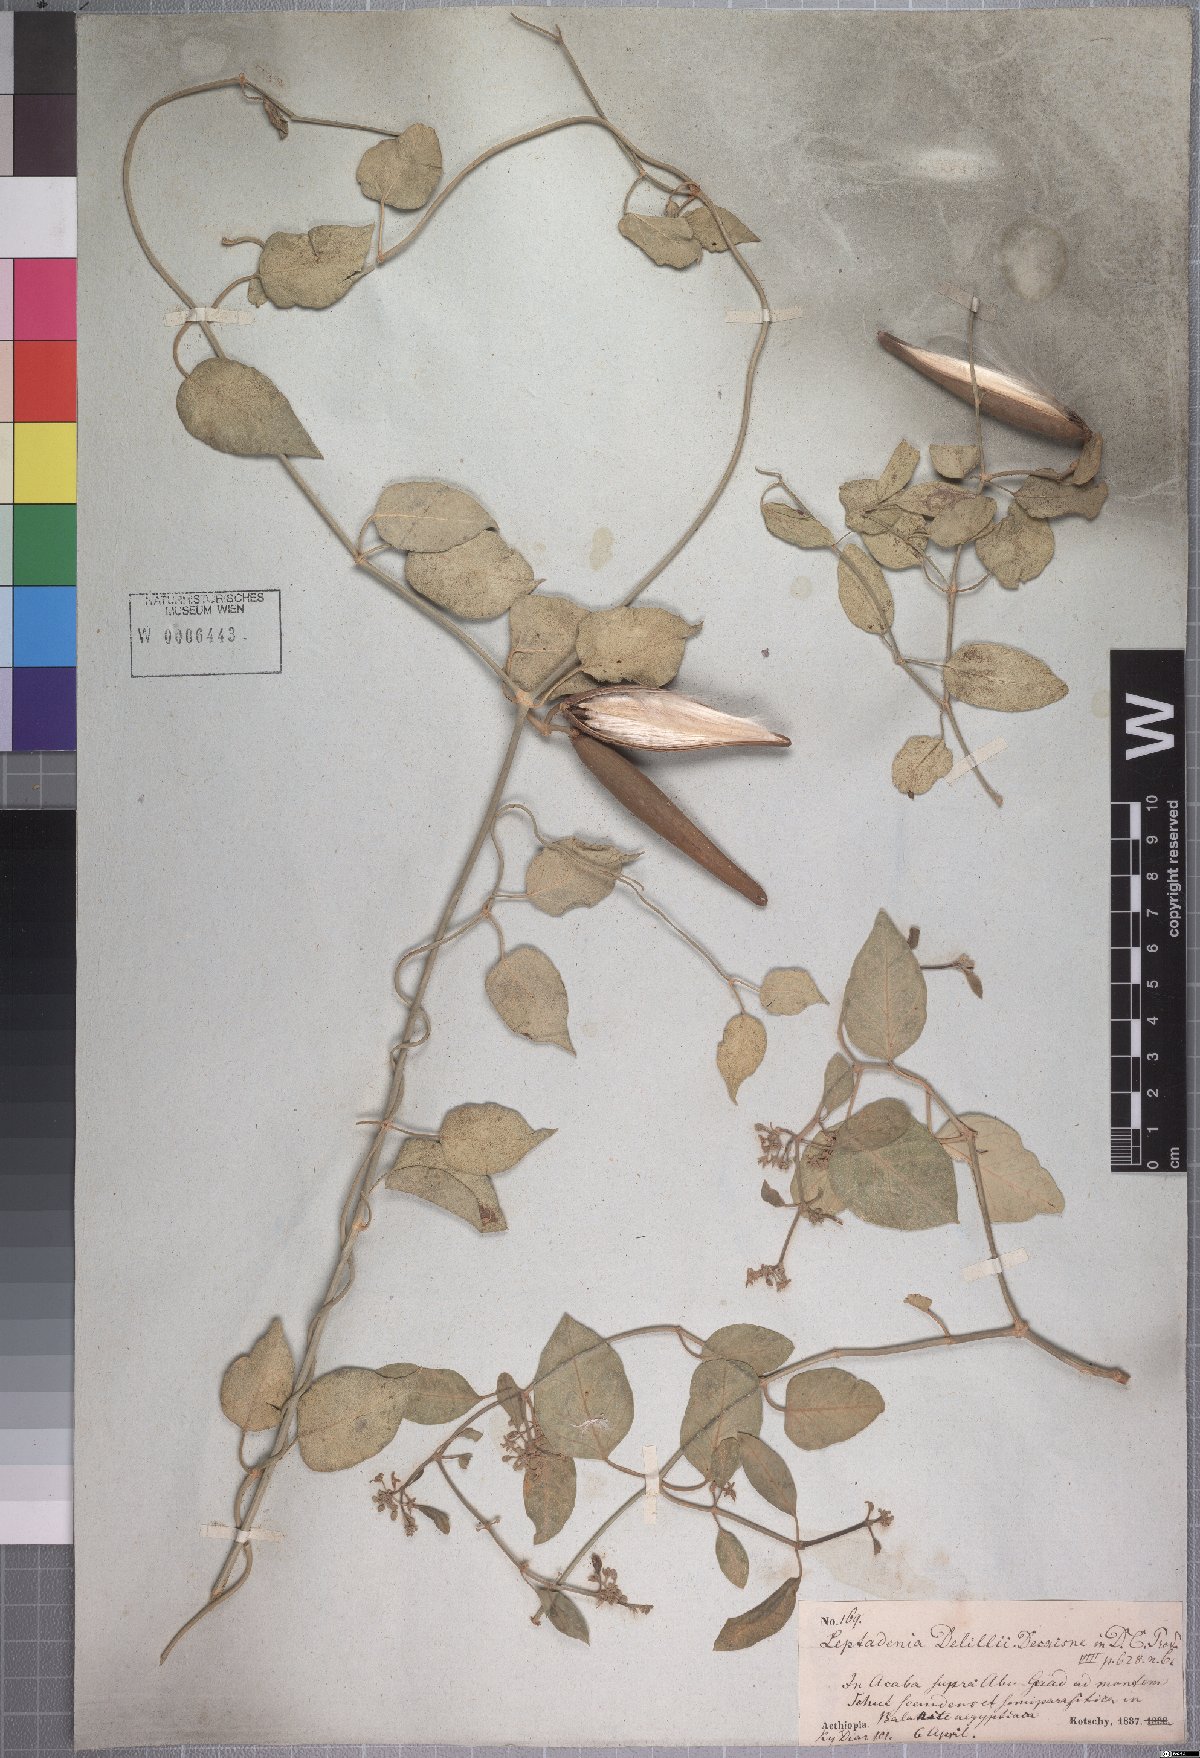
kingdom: Plantae
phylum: Tracheophyta
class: Magnoliopsida
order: Gentianales
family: Apocynaceae
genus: Leptadenia
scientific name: Leptadenia arborea
